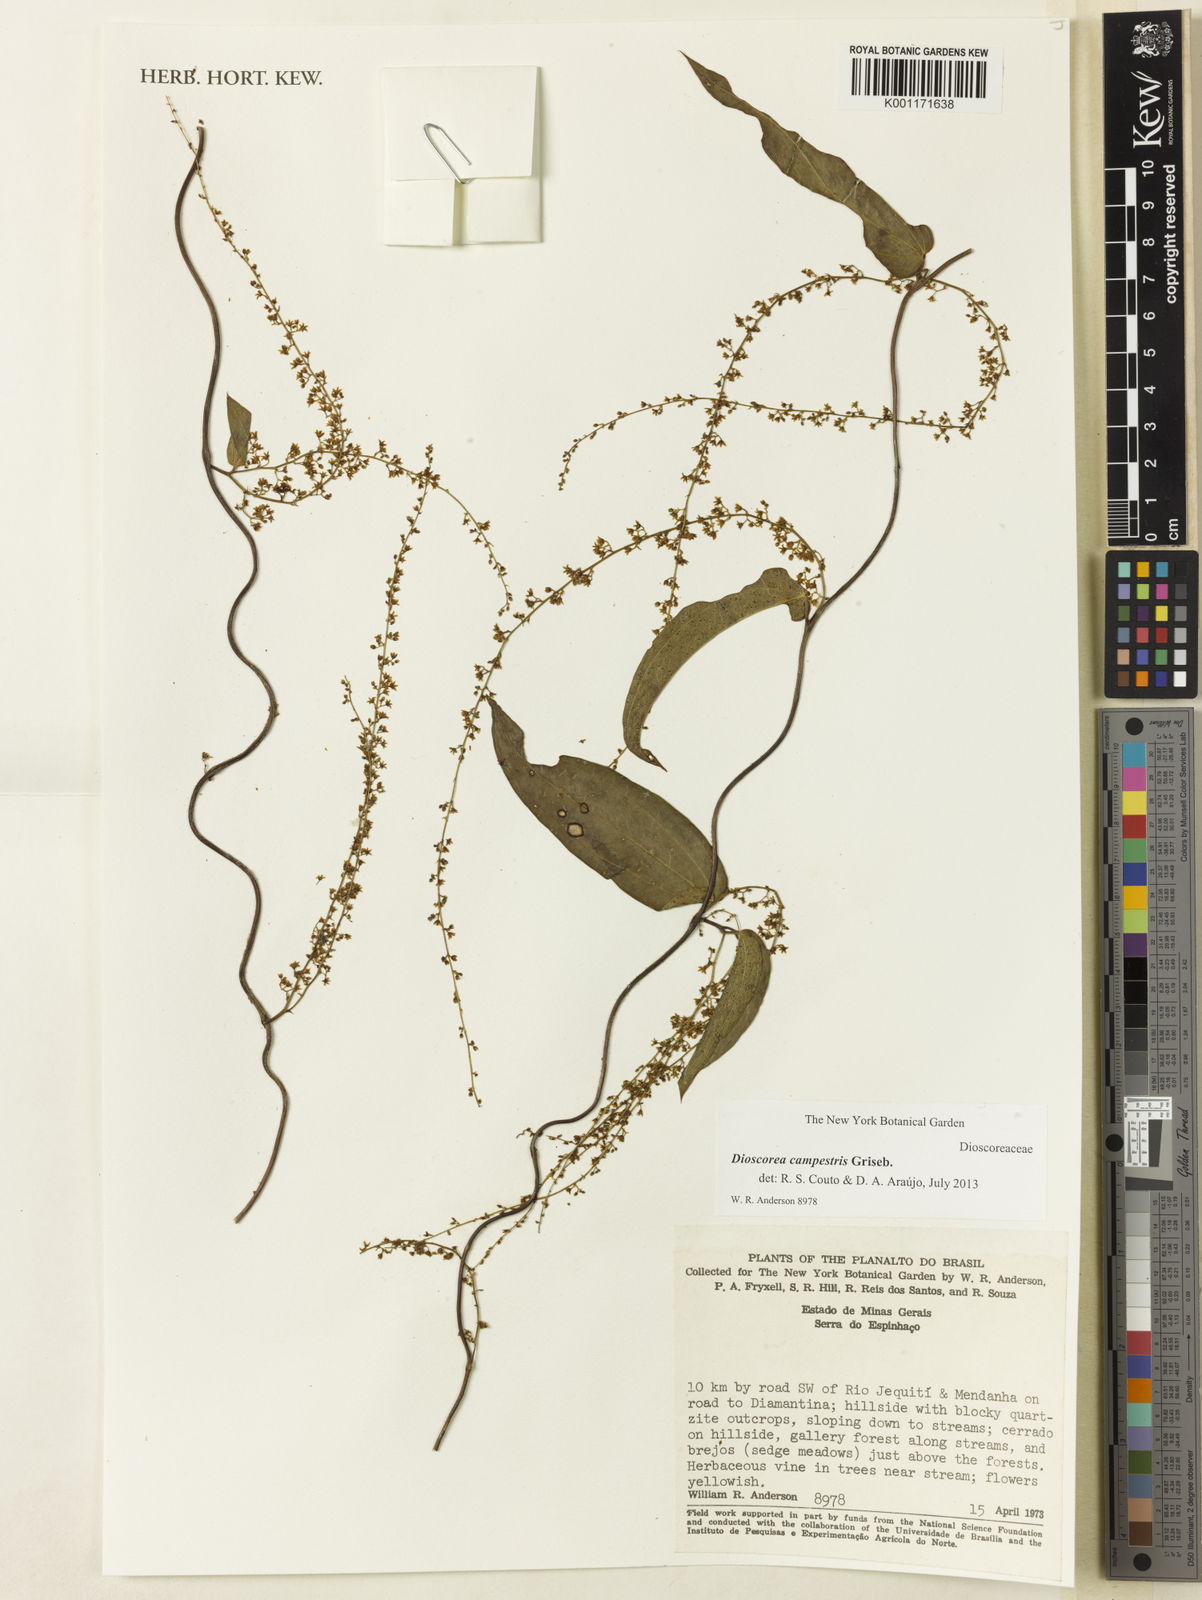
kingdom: Plantae
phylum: Tracheophyta
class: Liliopsida
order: Dioscoreales
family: Dioscoreaceae
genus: Dioscorea
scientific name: Dioscorea campestris
